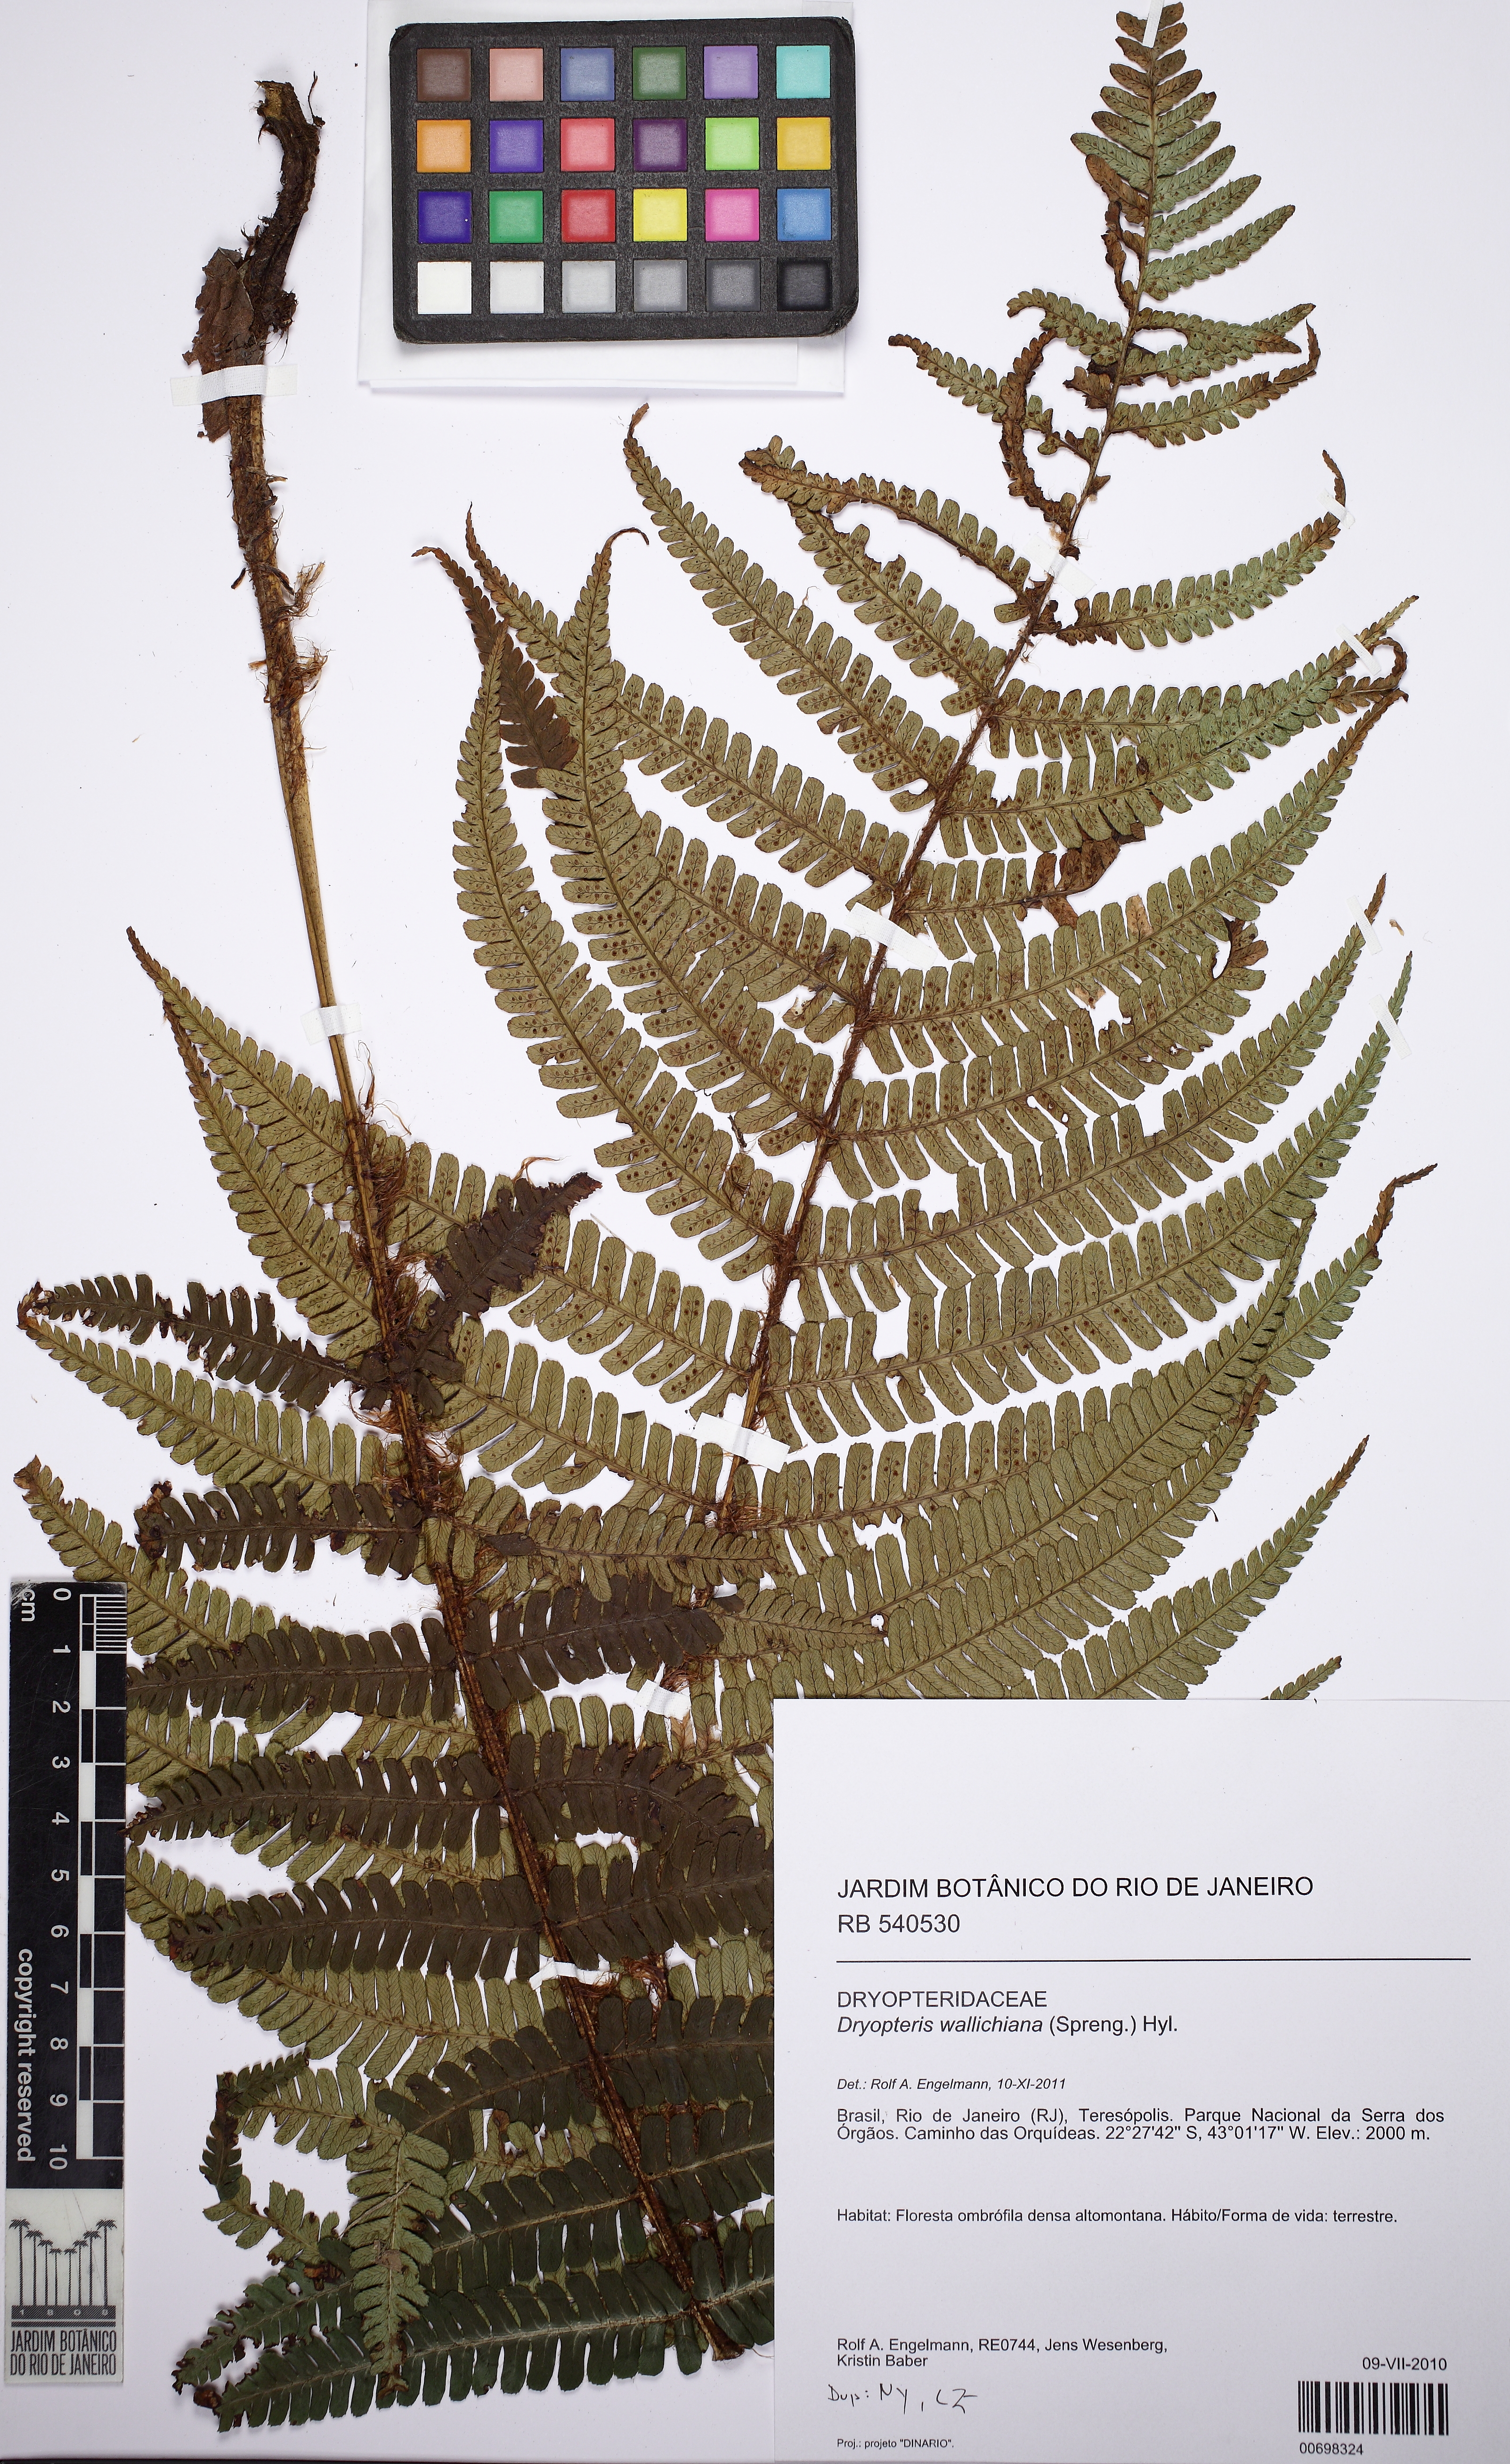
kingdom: Plantae
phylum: Tracheophyta
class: Polypodiopsida
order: Polypodiales
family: Dryopteridaceae
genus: Dryopteris
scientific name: Dryopteris wallichiana
